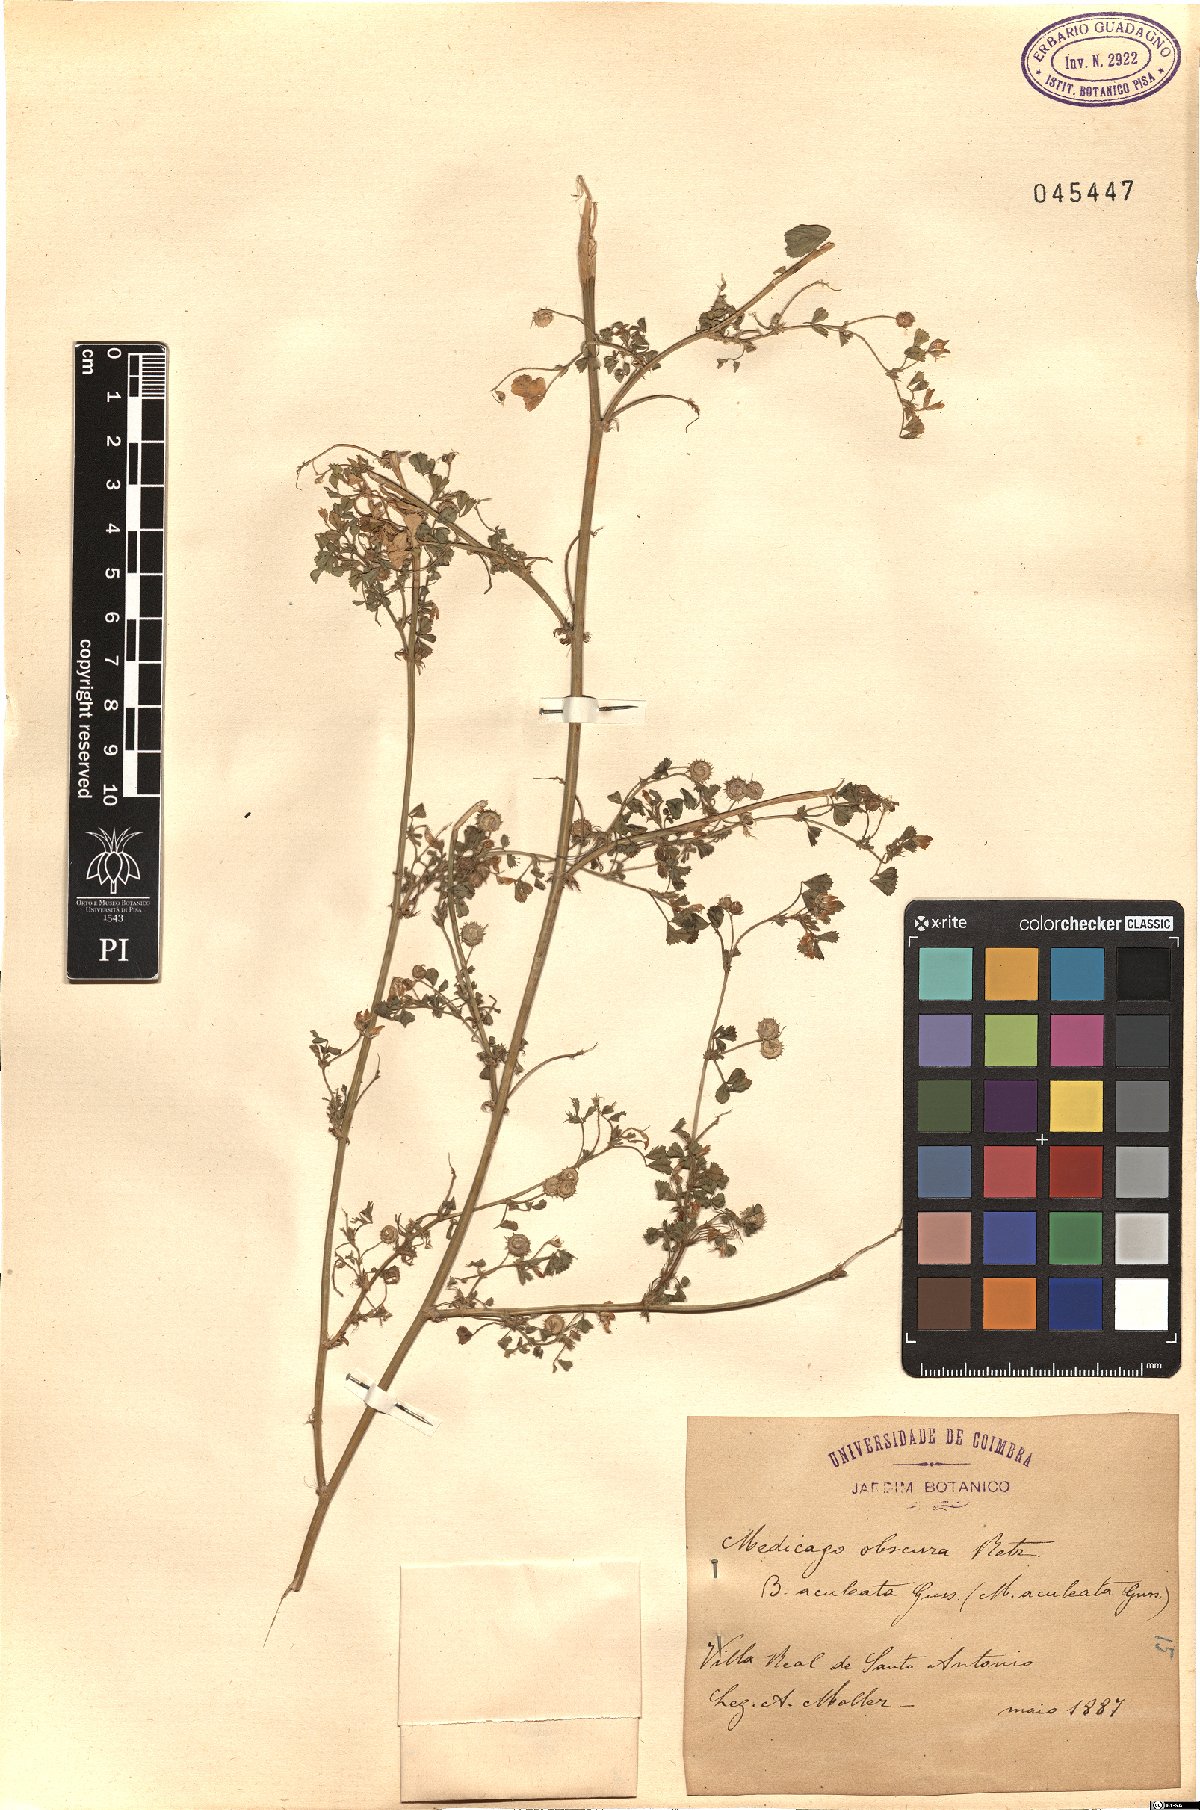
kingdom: Plantae
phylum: Tracheophyta
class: Magnoliopsida
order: Fabales
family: Fabaceae
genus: Medicago
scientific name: Medicago tornata
